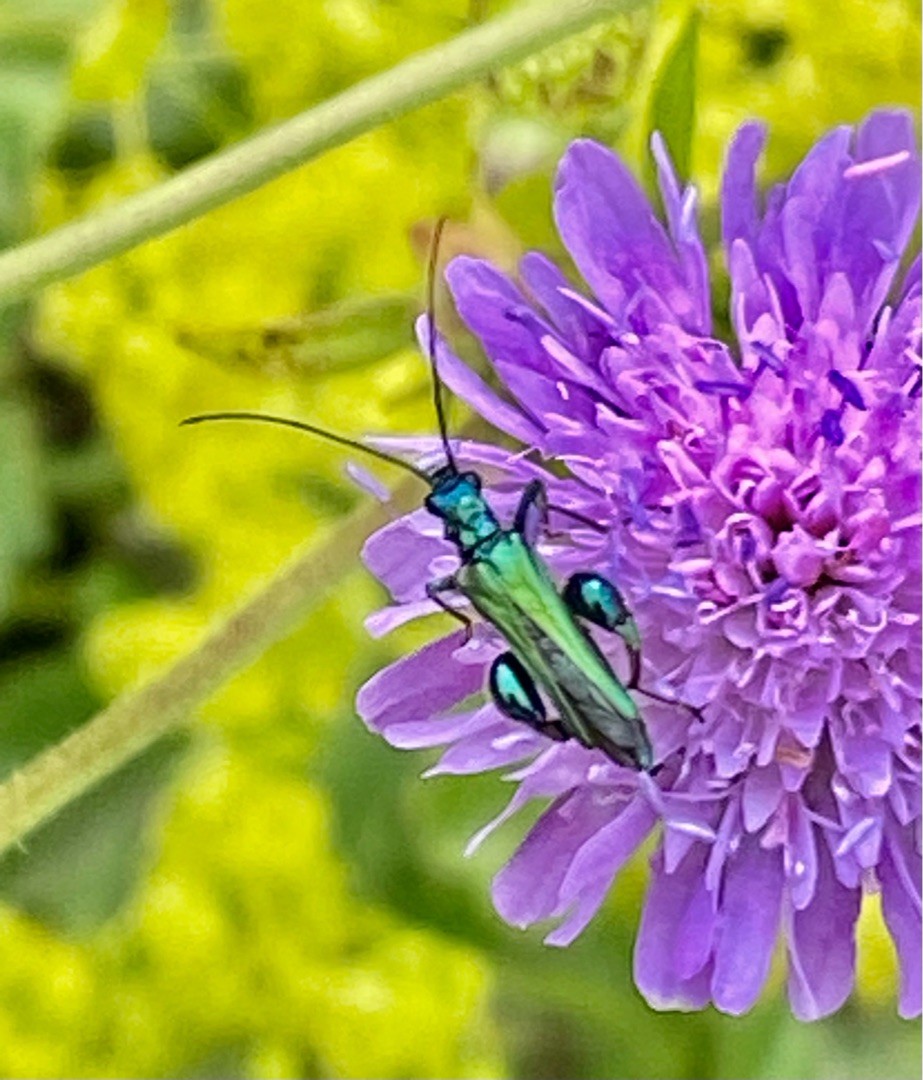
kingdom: Animalia
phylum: Arthropoda
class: Insecta
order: Coleoptera
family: Oedemeridae
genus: Oedemera
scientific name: Oedemera nobilis
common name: Tyklårssolbille
